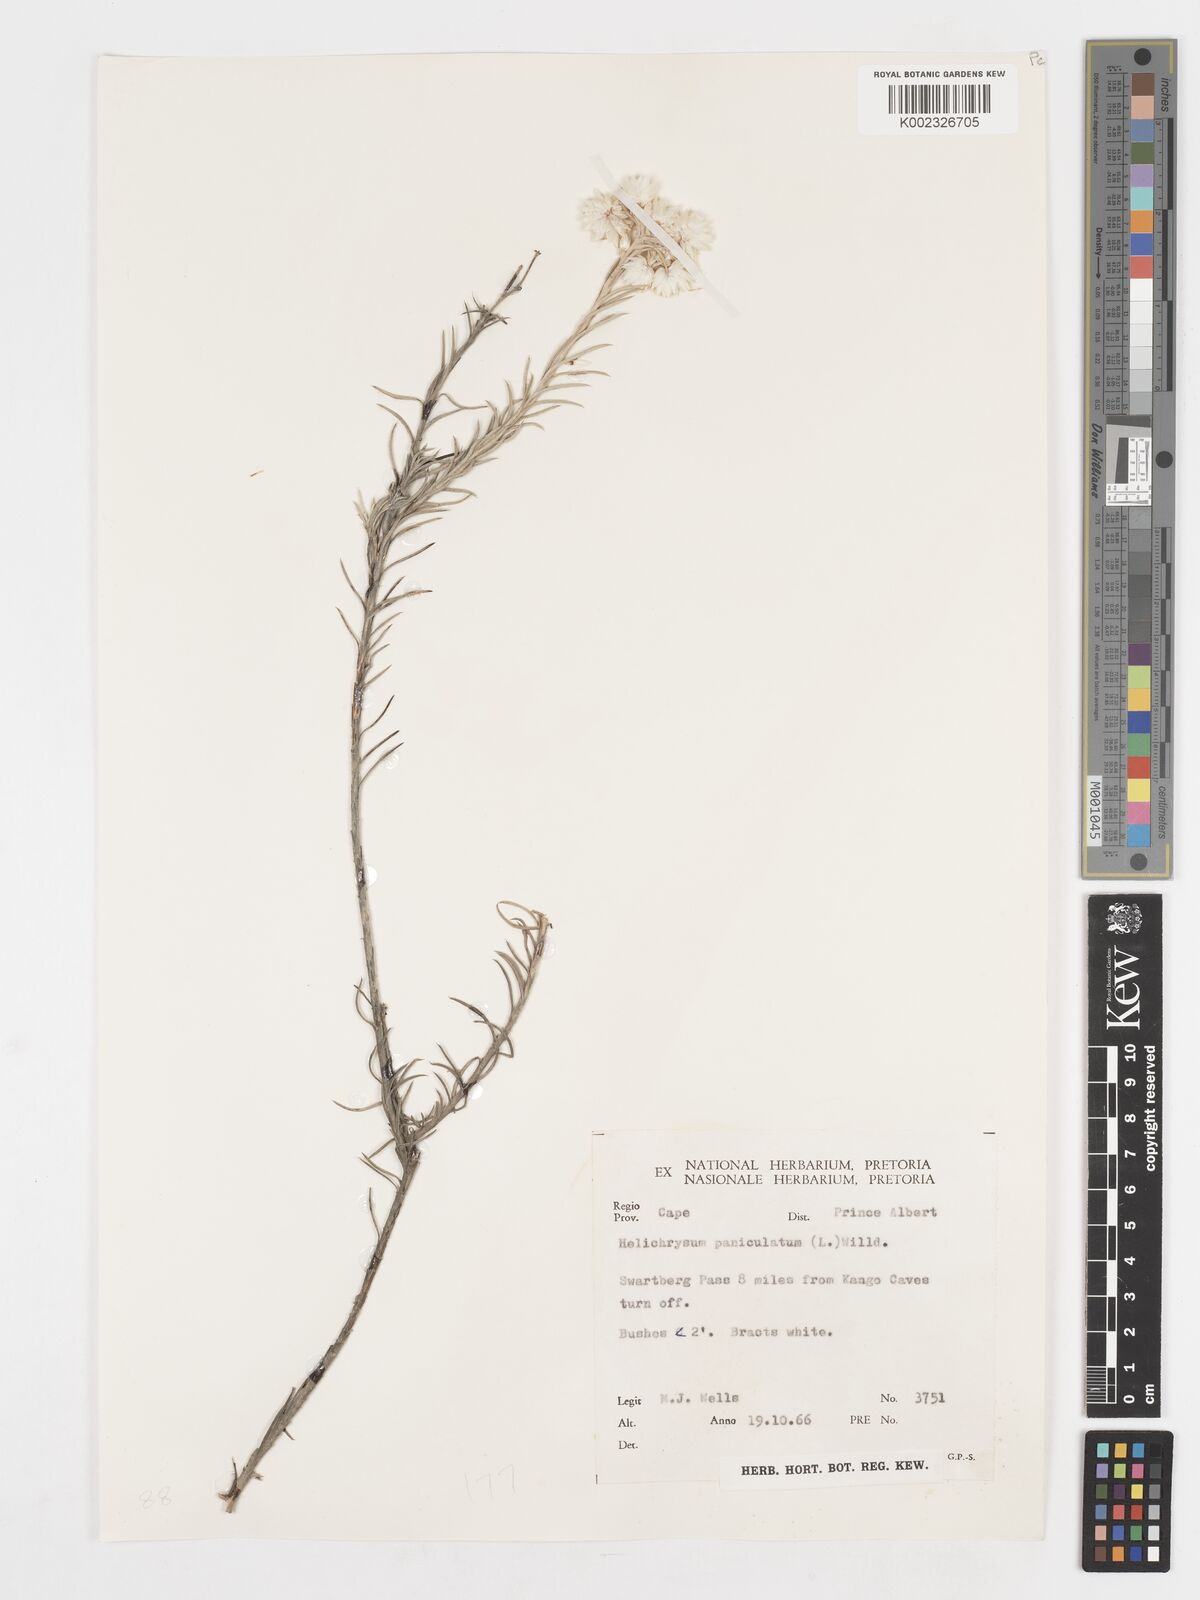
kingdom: Plantae
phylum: Tracheophyta
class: Magnoliopsida
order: Asterales
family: Asteraceae
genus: Achyranthemum
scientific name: Achyranthemum paniculatum
